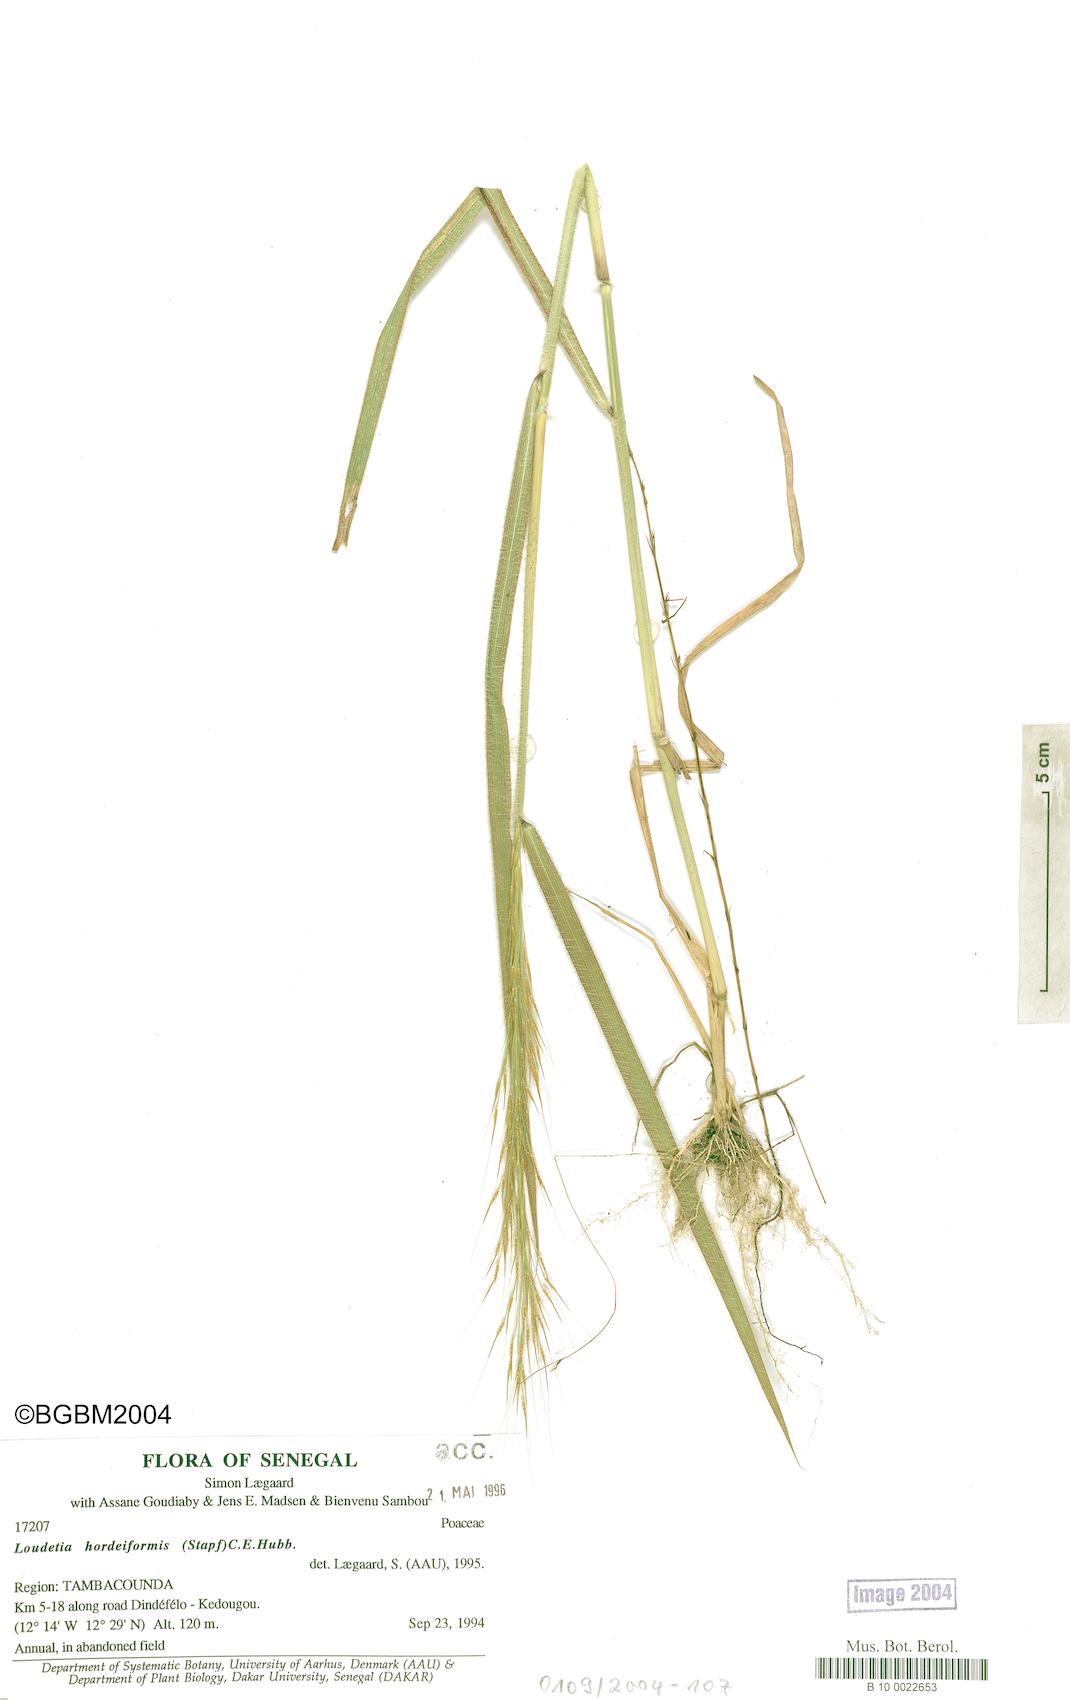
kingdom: Plantae
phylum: Tracheophyta
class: Liliopsida
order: Poales
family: Poaceae
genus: Loudetia
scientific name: Loudetia hordeiformis
